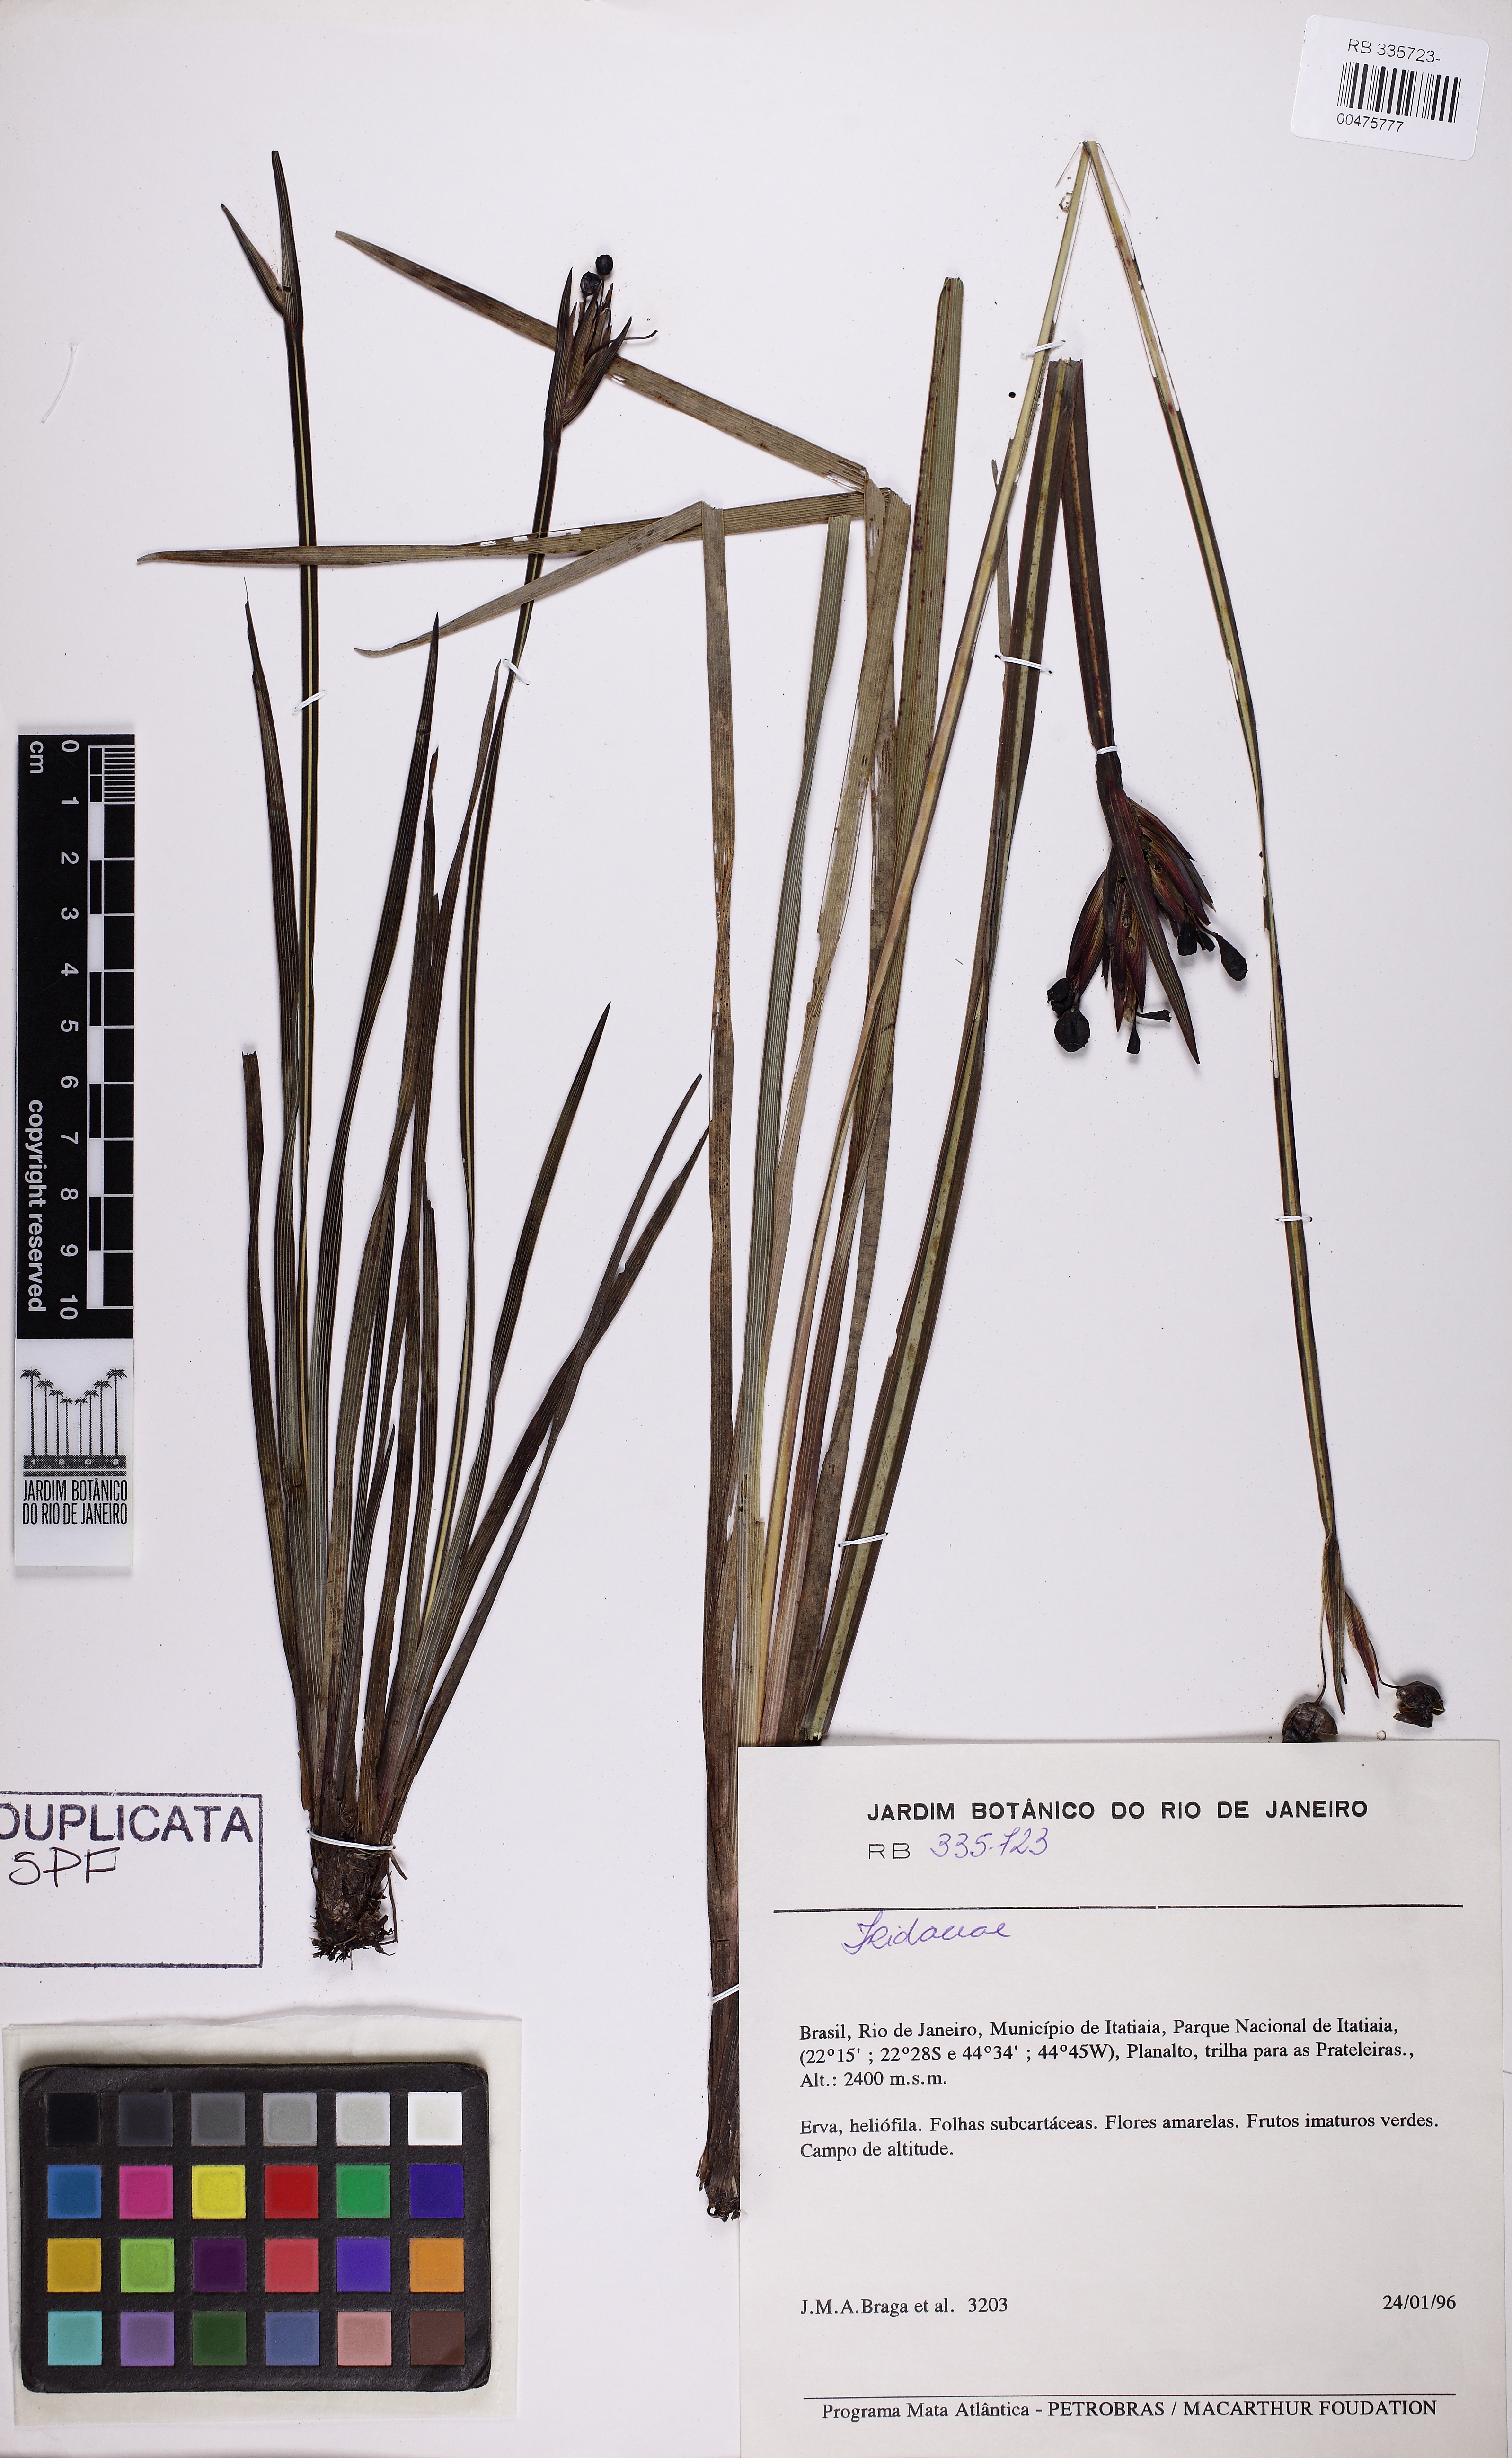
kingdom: Plantae
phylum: Tracheophyta
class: Liliopsida
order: Asparagales
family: Iridaceae
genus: Sisyrinchium
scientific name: Sisyrinchium wettsteinii
